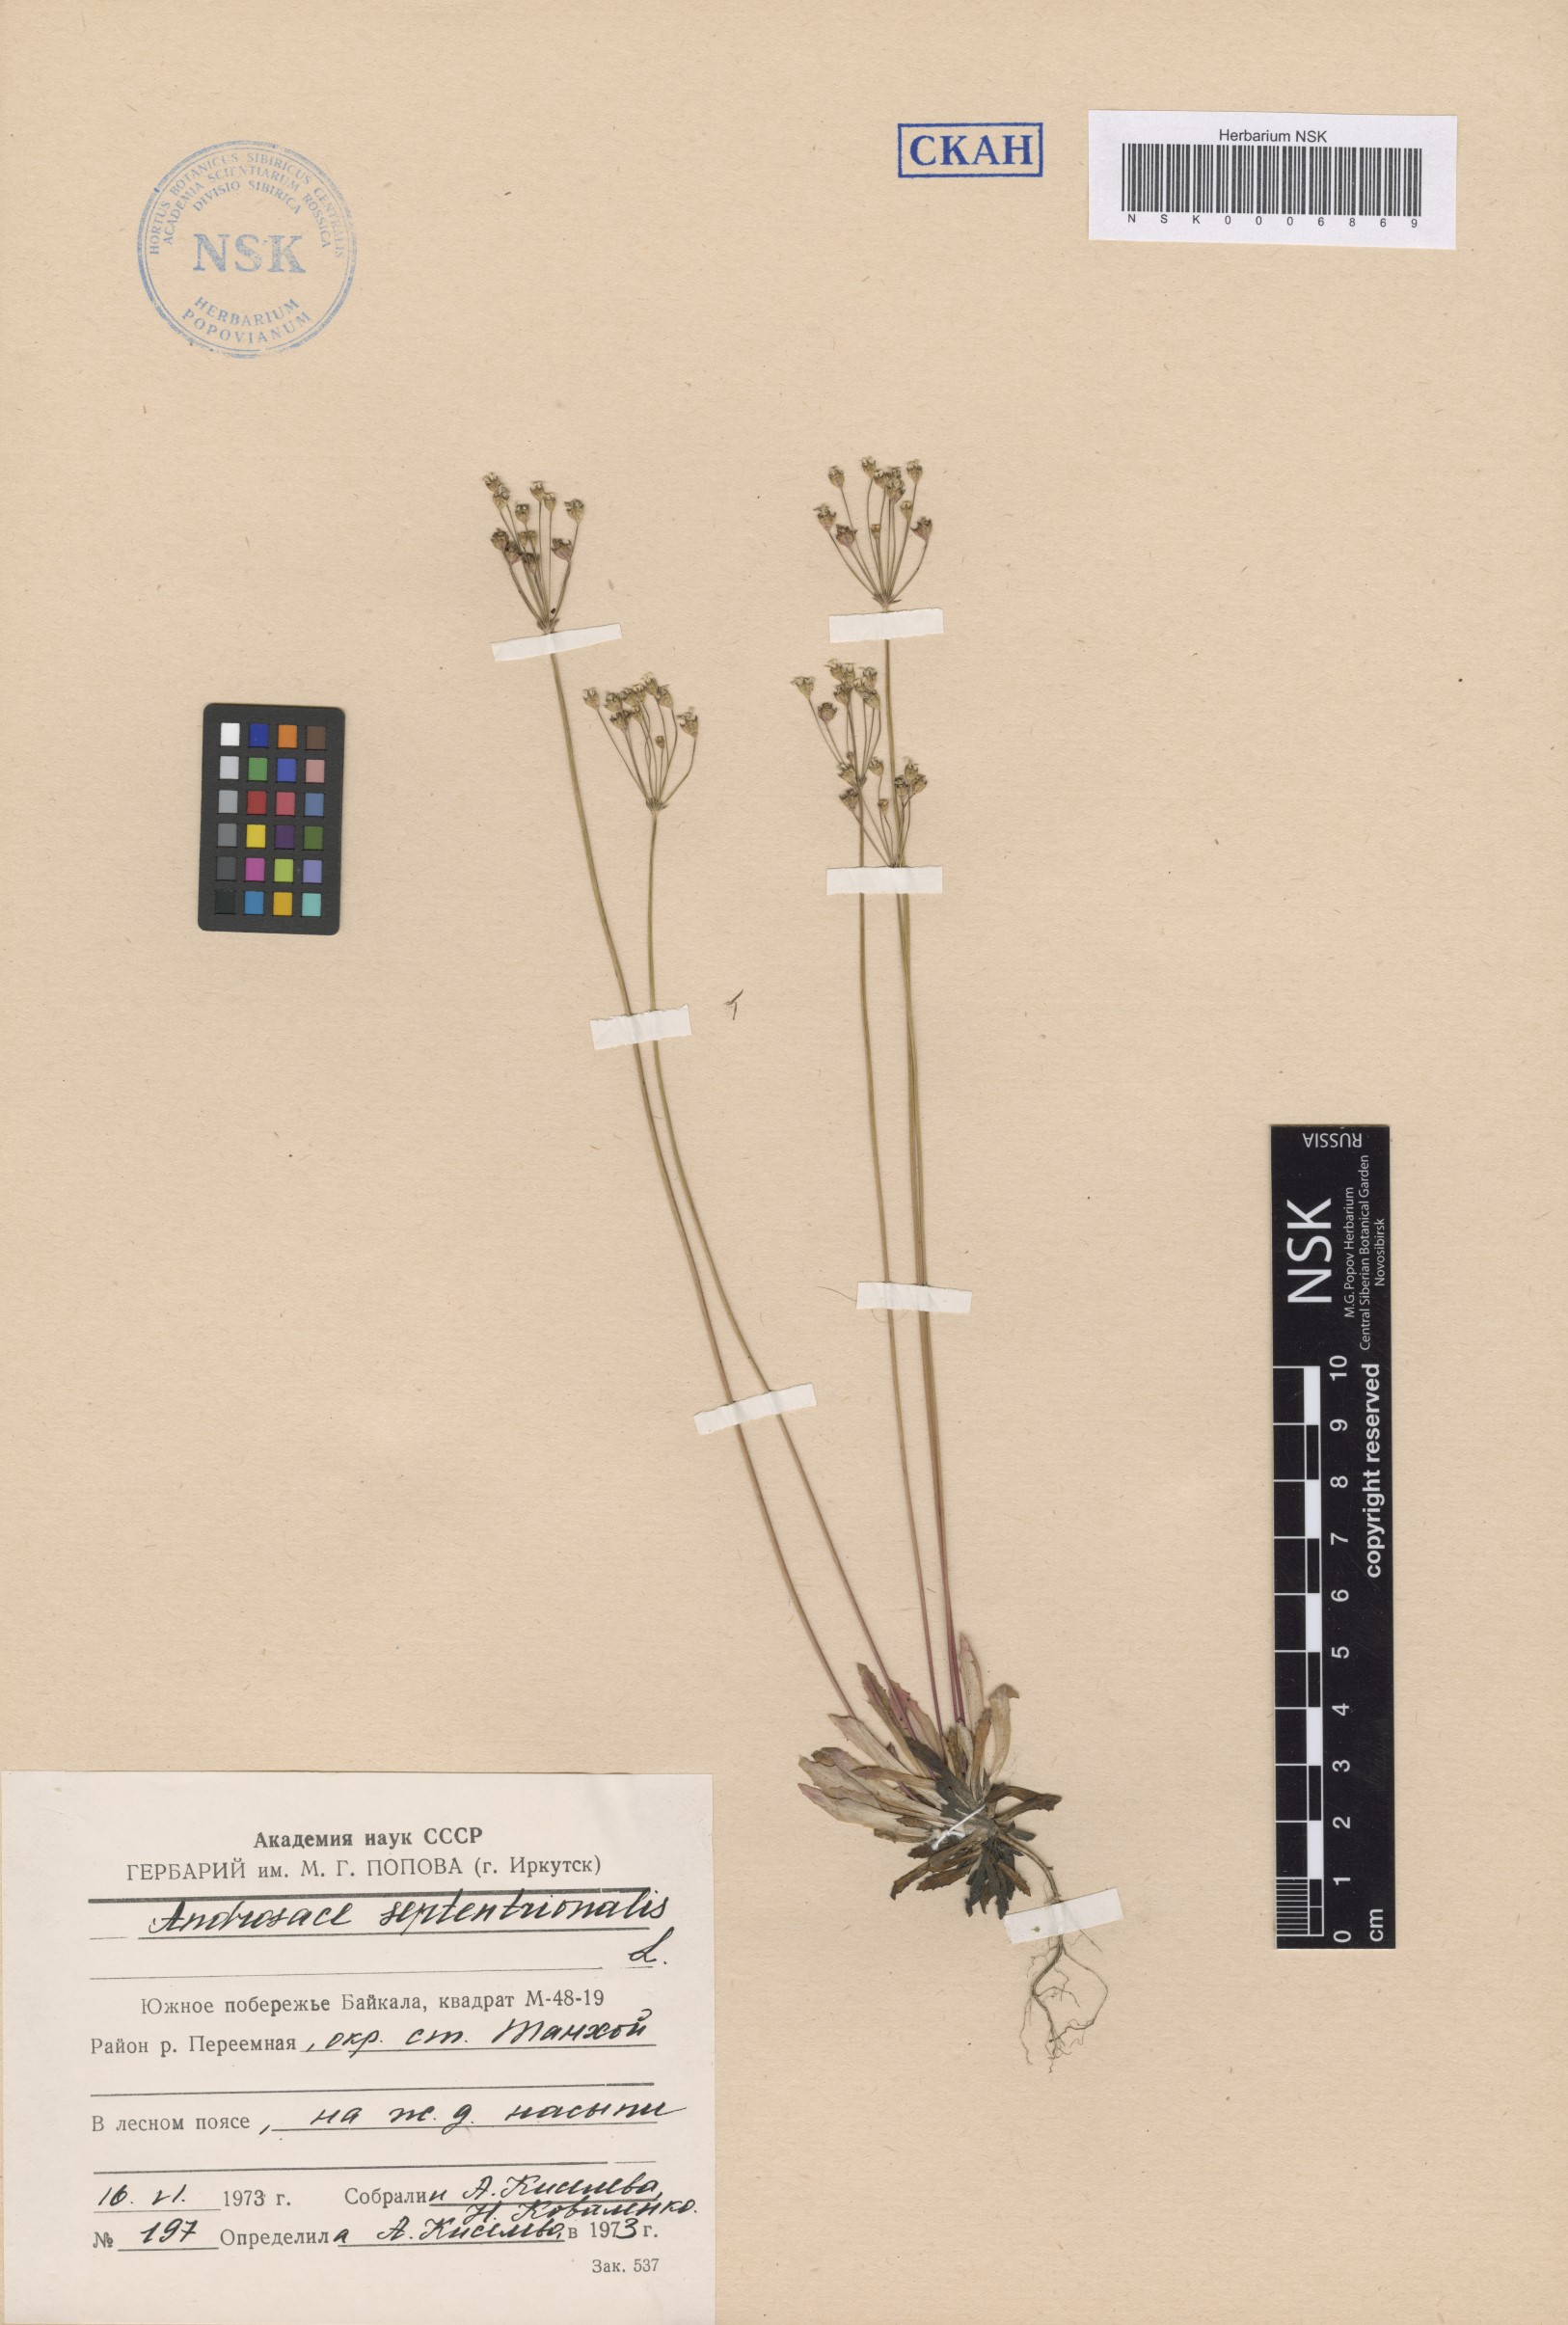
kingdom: Plantae
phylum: Tracheophyta
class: Magnoliopsida
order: Ericales
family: Primulaceae
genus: Androsace
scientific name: Androsace septentrionalis
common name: Hairy northern fairy-candelabra
